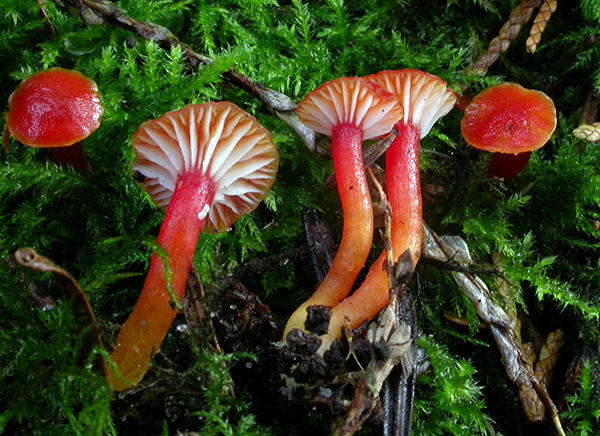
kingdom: Fungi
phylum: Basidiomycota
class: Agaricomycetes
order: Agaricales
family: Hygrophoraceae
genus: Hygrocybe
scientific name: Hygrocybe insipida
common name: liden vokshat
